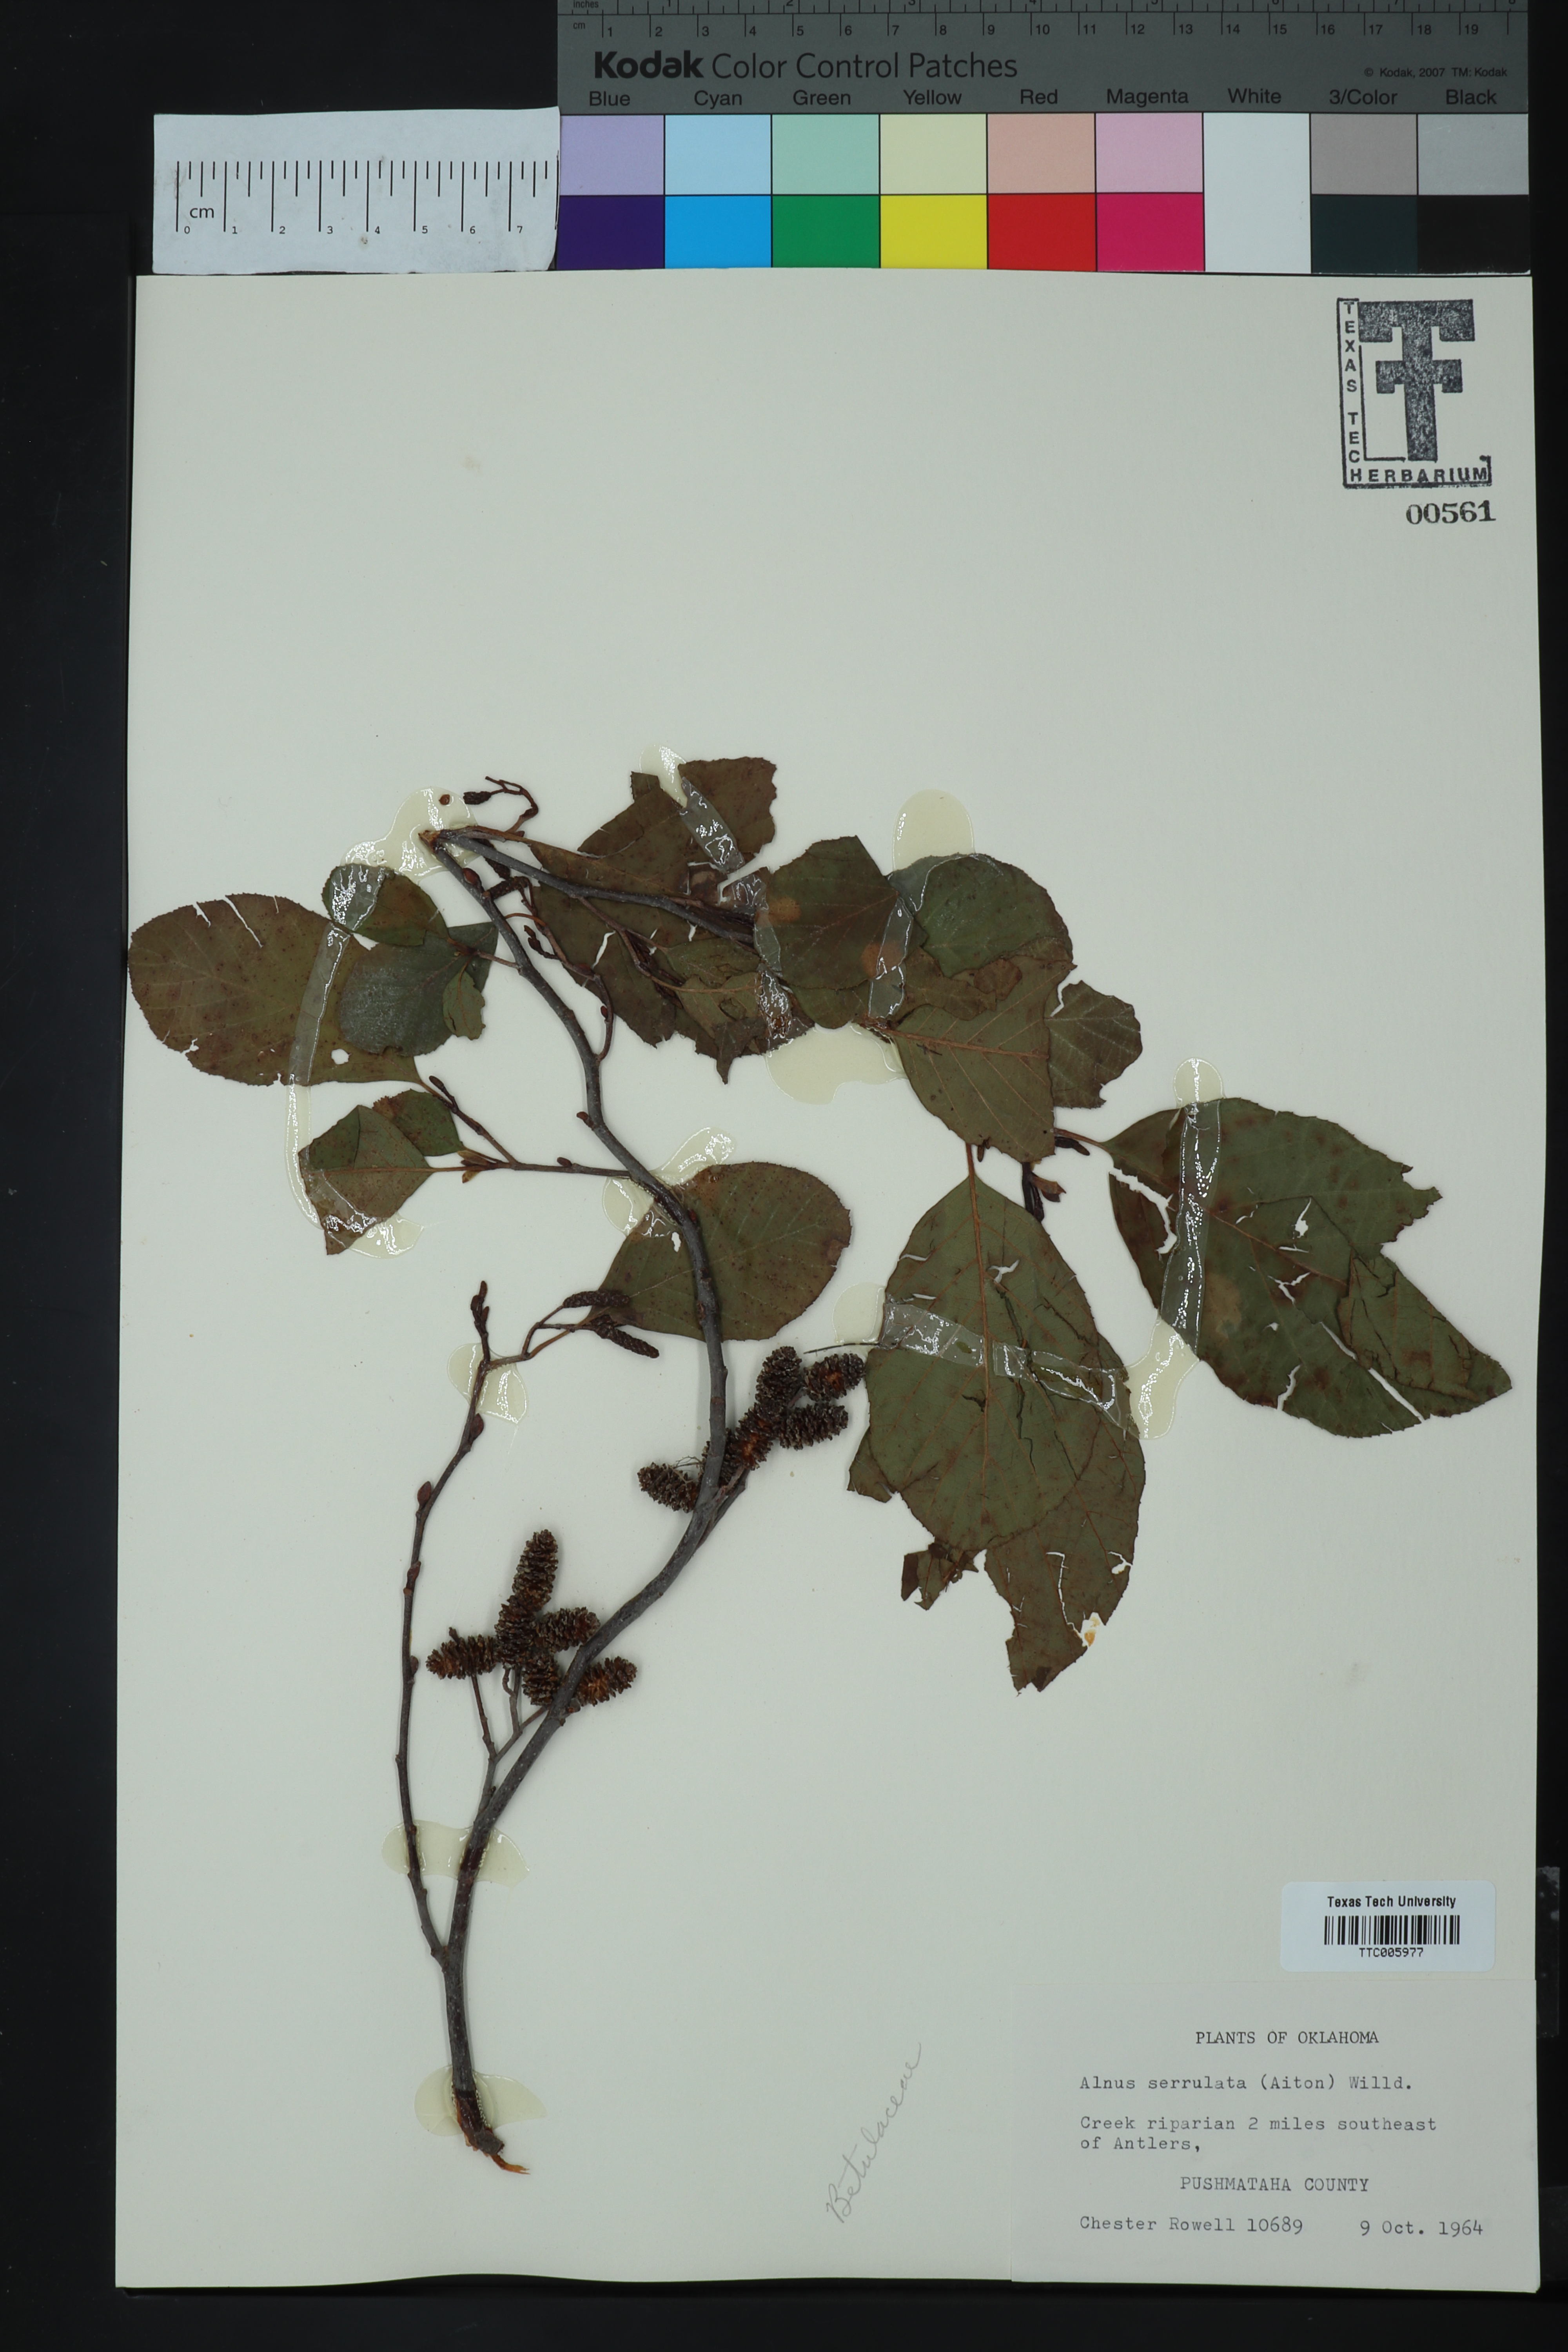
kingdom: Plantae
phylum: Tracheophyta
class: Magnoliopsida
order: Fagales
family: Betulaceae
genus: Alnus
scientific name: Alnus serrulata
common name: Hazel alder
